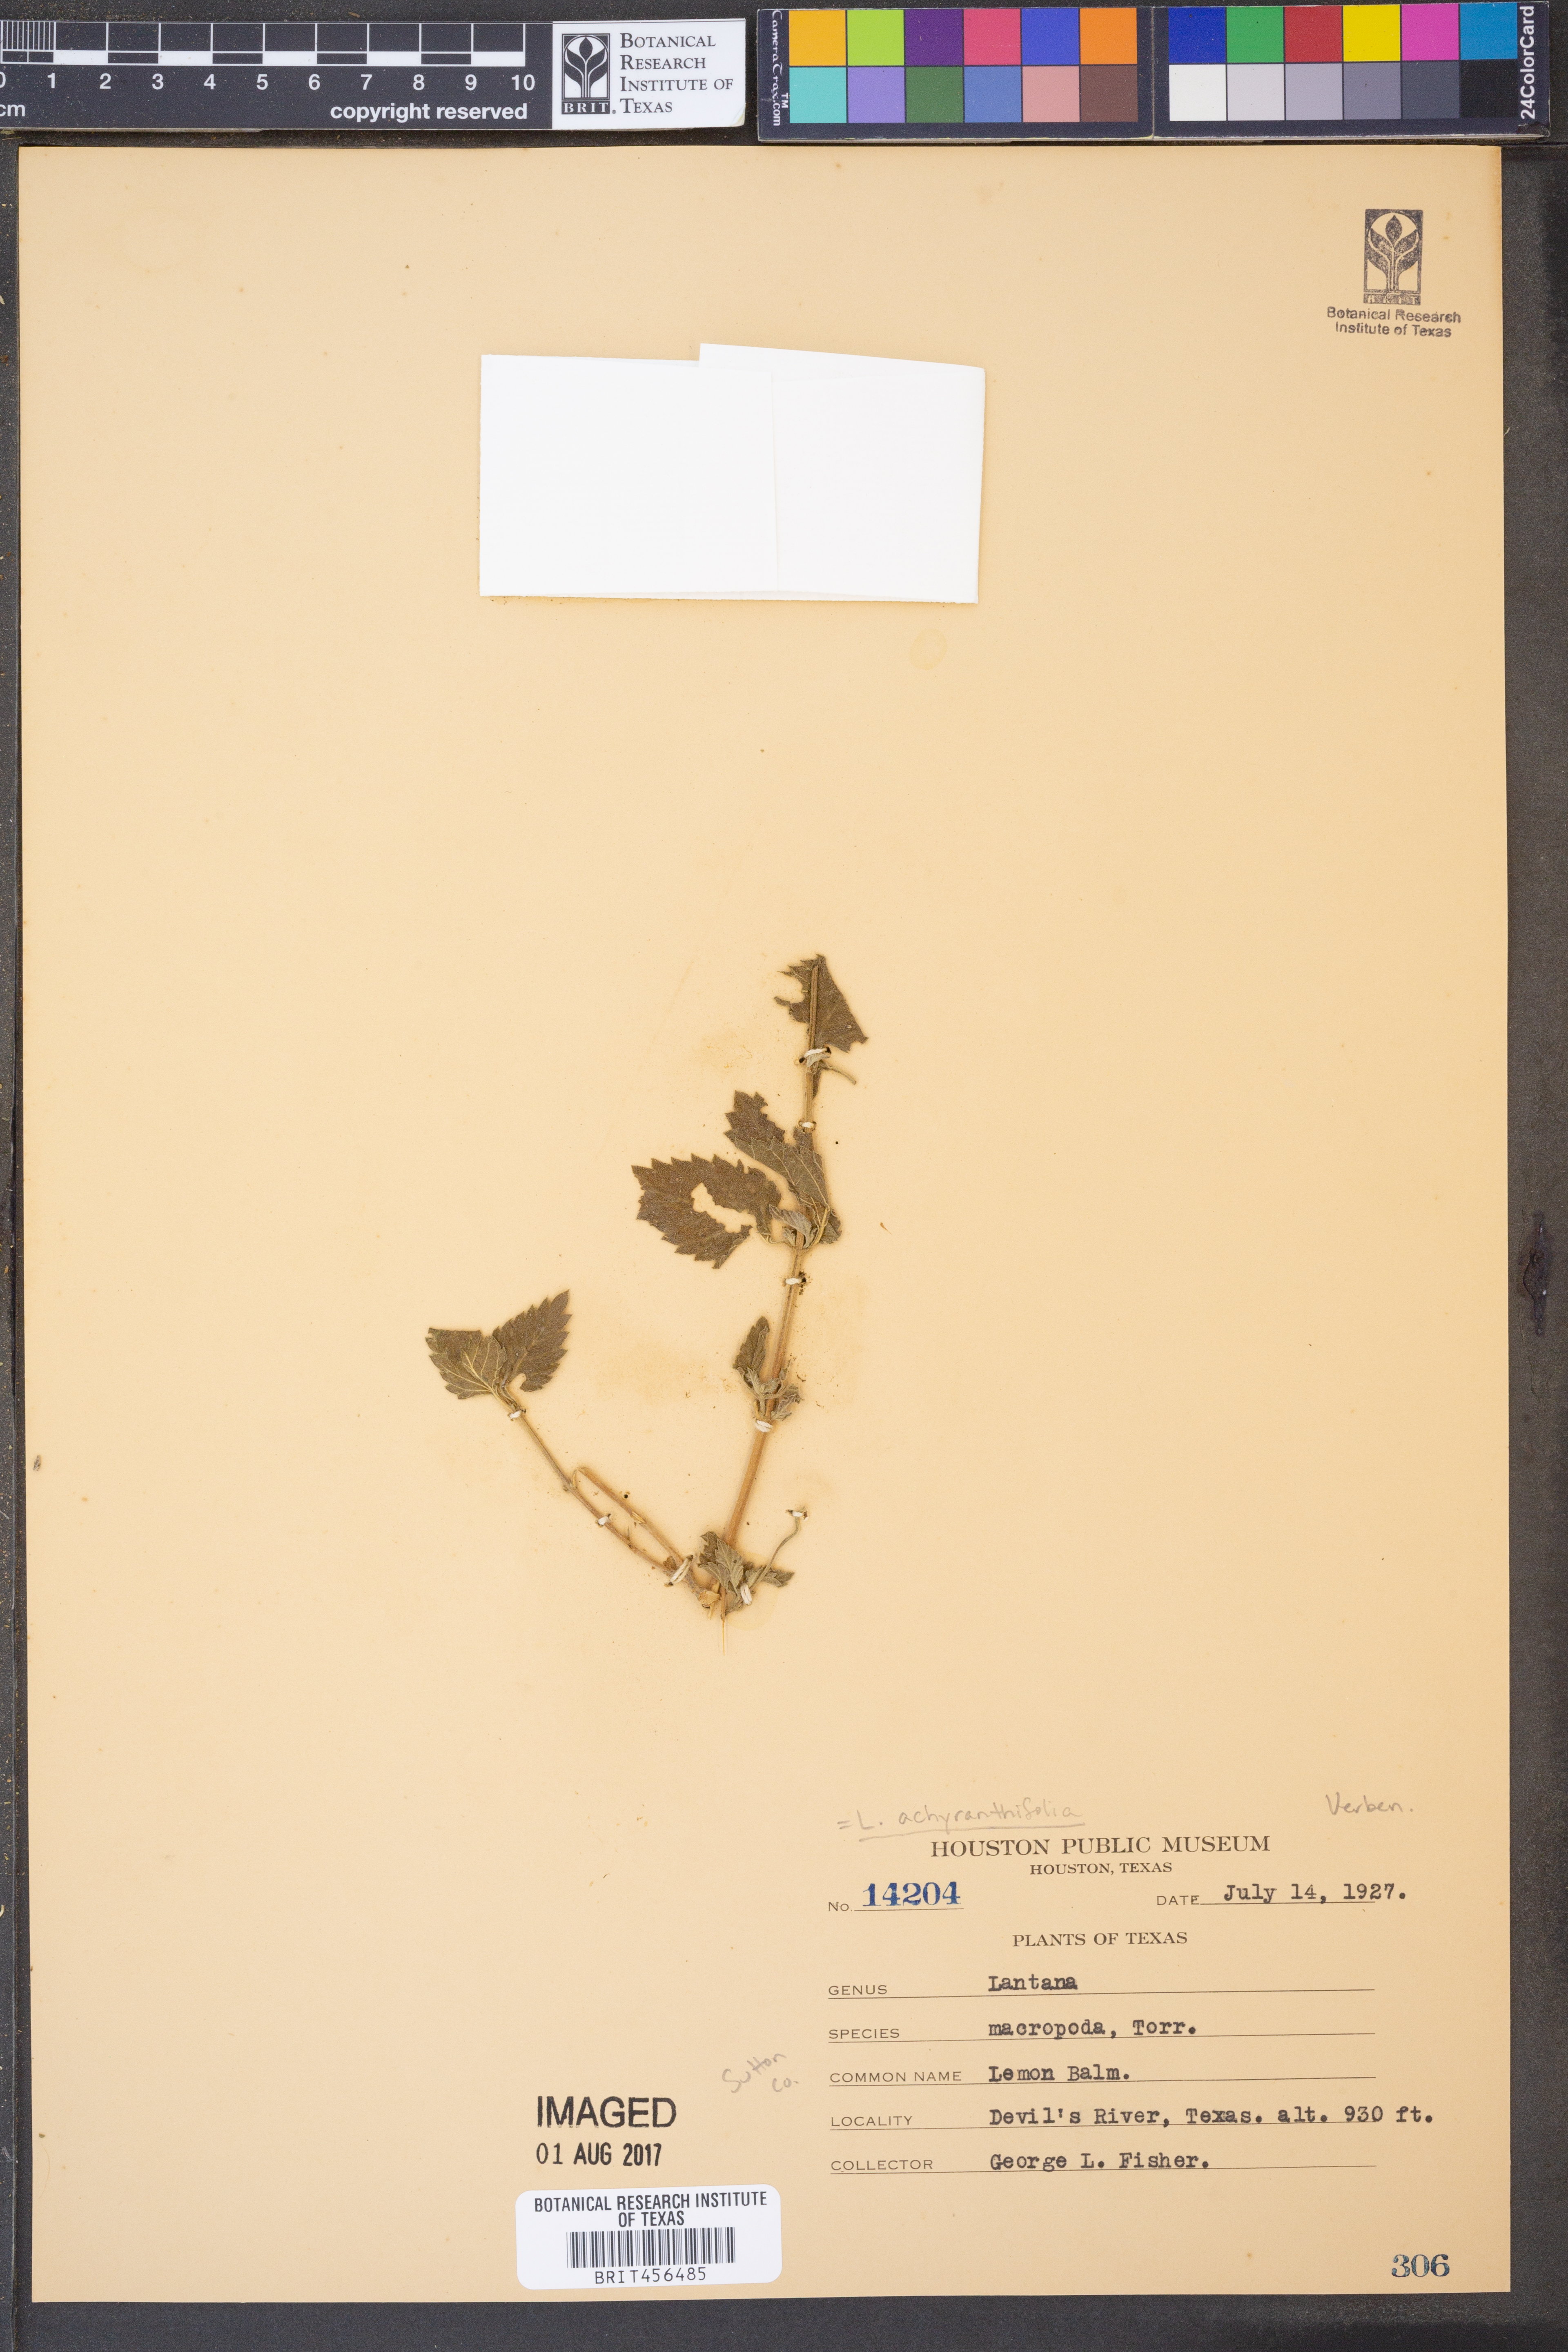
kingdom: Plantae
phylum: Tracheophyta
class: Magnoliopsida
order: Lamiales
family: Verbenaceae
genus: Lantana
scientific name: Lantana achyranthifolia
